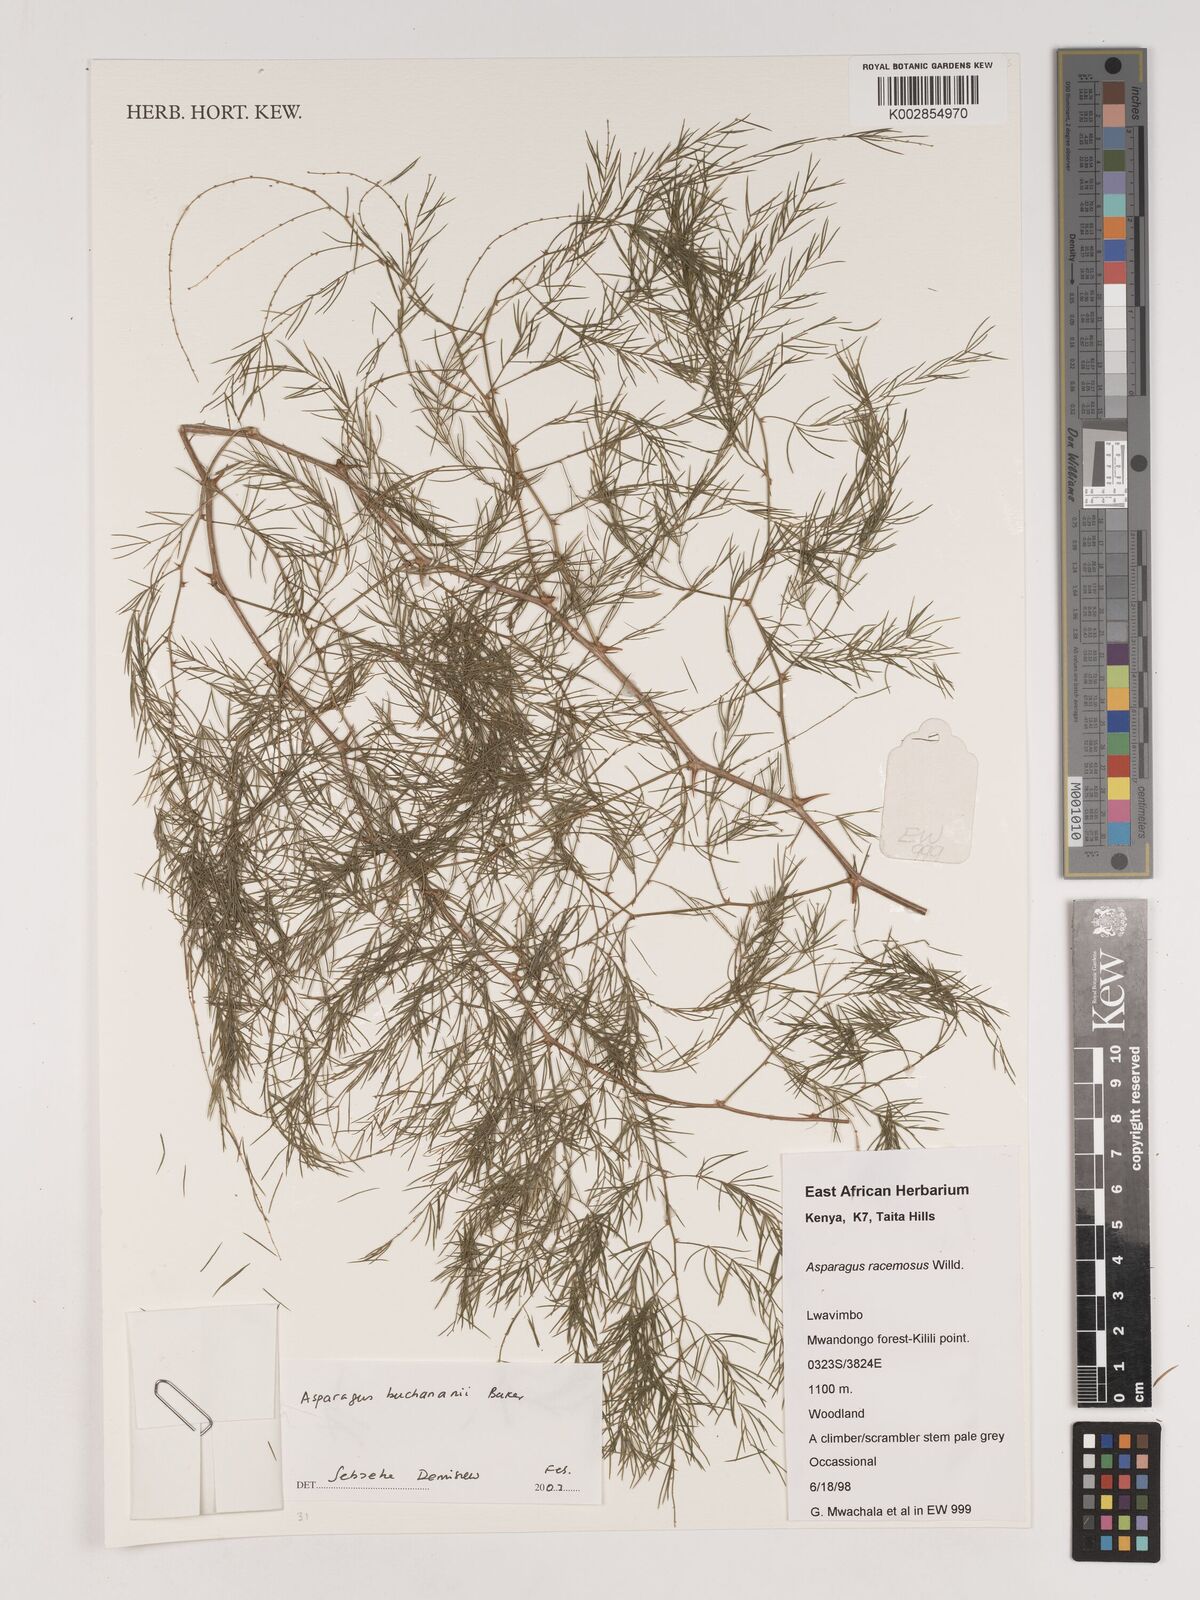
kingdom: Plantae
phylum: Tracheophyta
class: Liliopsida
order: Asparagales
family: Asparagaceae
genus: Asparagus
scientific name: Asparagus buchananii
